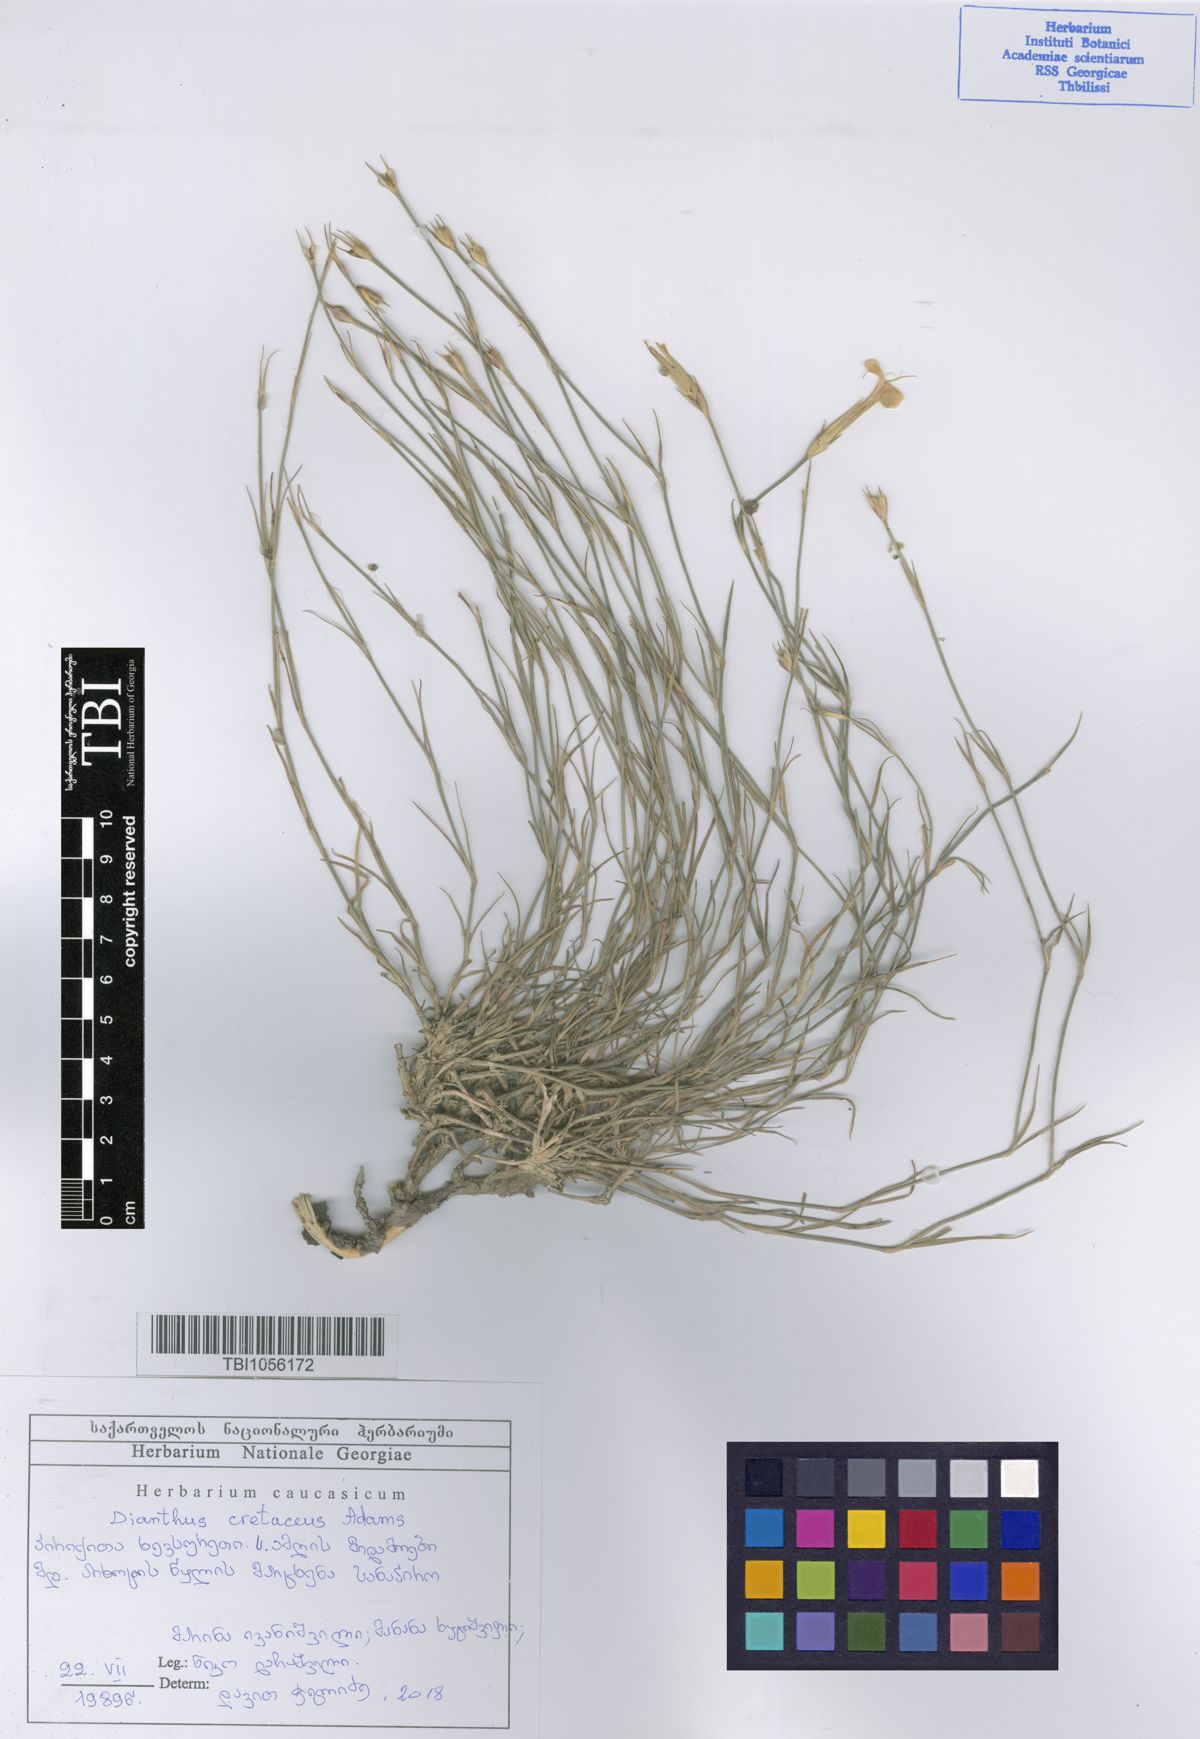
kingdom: Plantae
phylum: Tracheophyta
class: Magnoliopsida
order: Caryophyllales
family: Caryophyllaceae
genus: Dianthus
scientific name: Dianthus cretaceus
